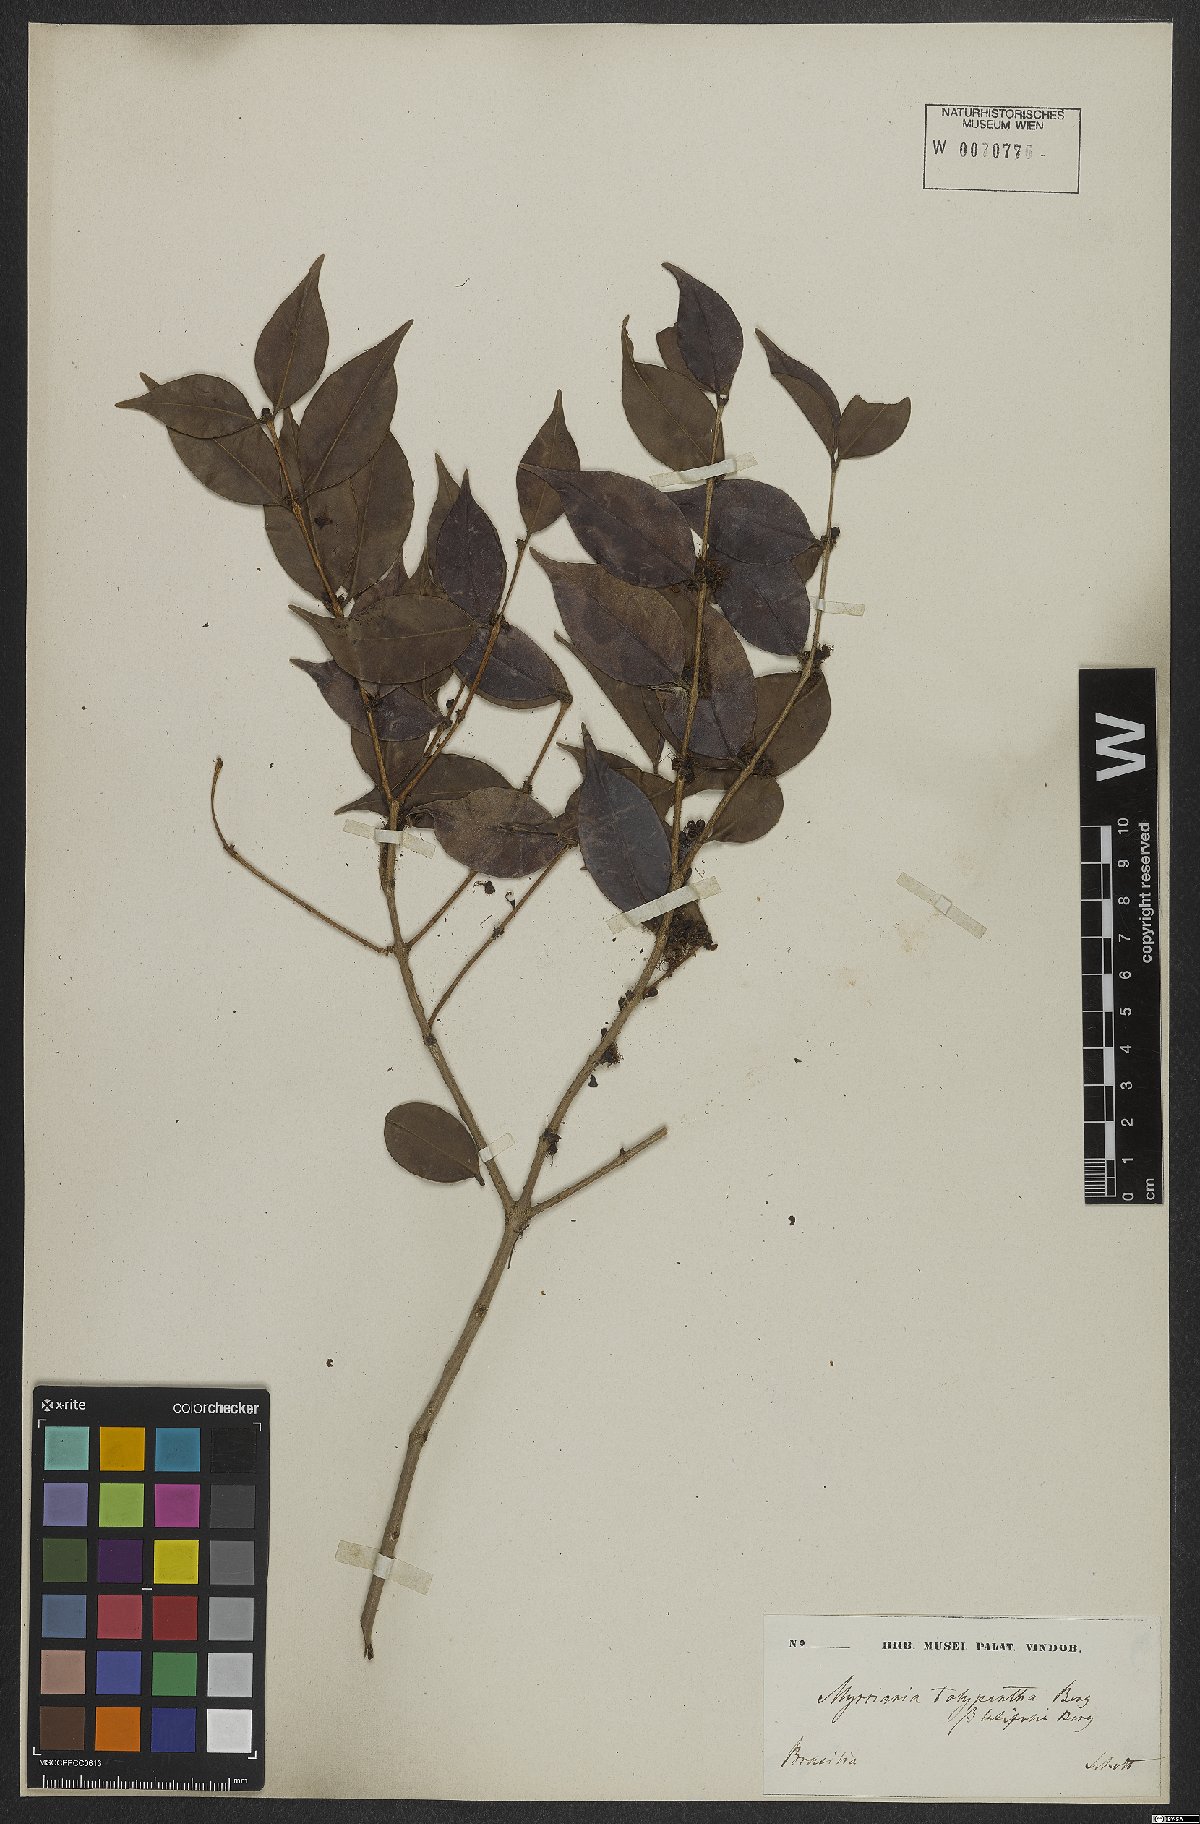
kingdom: Plantae
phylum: Tracheophyta
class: Magnoliopsida
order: Myrtales
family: Myrtaceae
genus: Myrciaria
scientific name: Myrciaria floribunda
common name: Guavaberry
